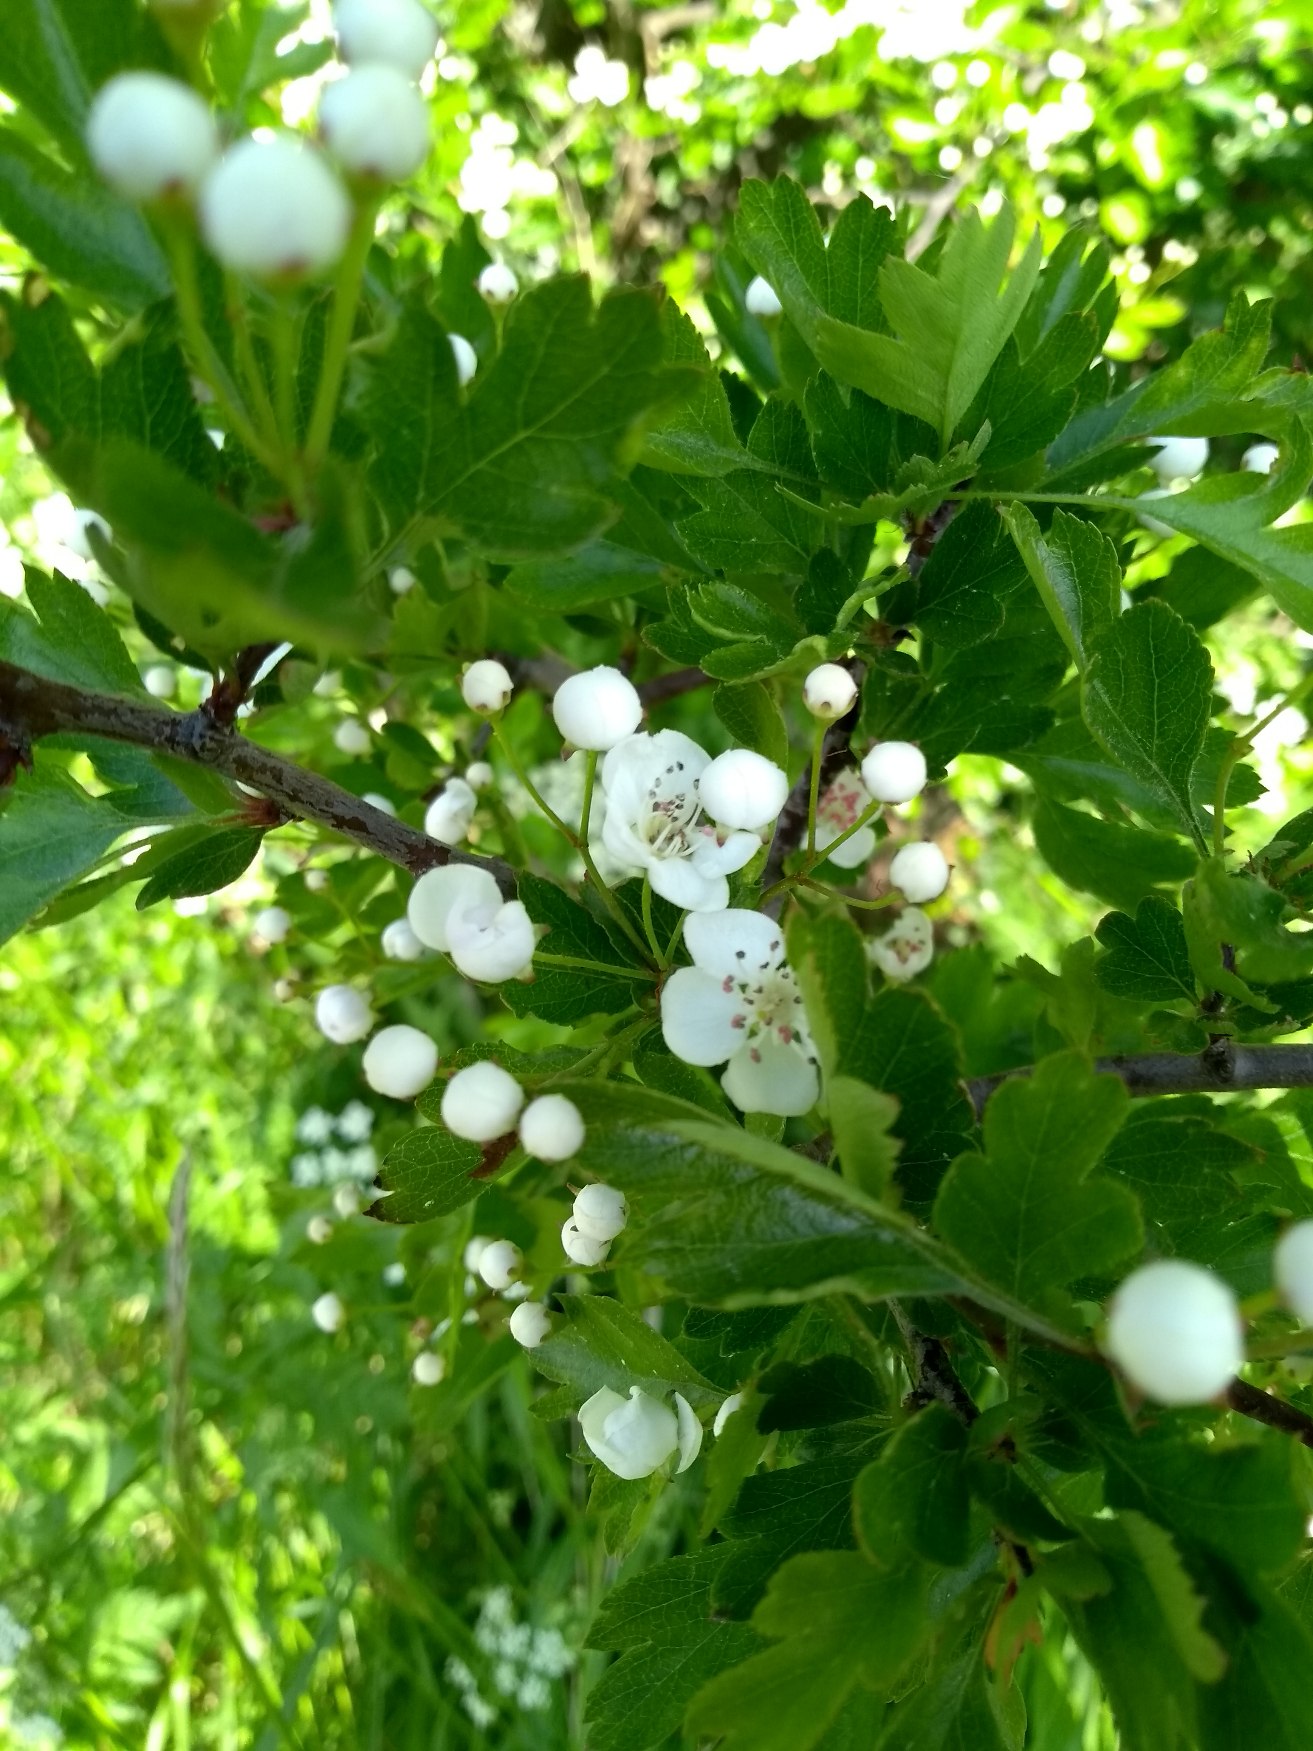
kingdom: Plantae
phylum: Tracheophyta
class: Magnoliopsida
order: Rosales
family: Rosaceae
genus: Crataegus
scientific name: Crataegus monogyna
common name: Engriflet hvidtjørn
